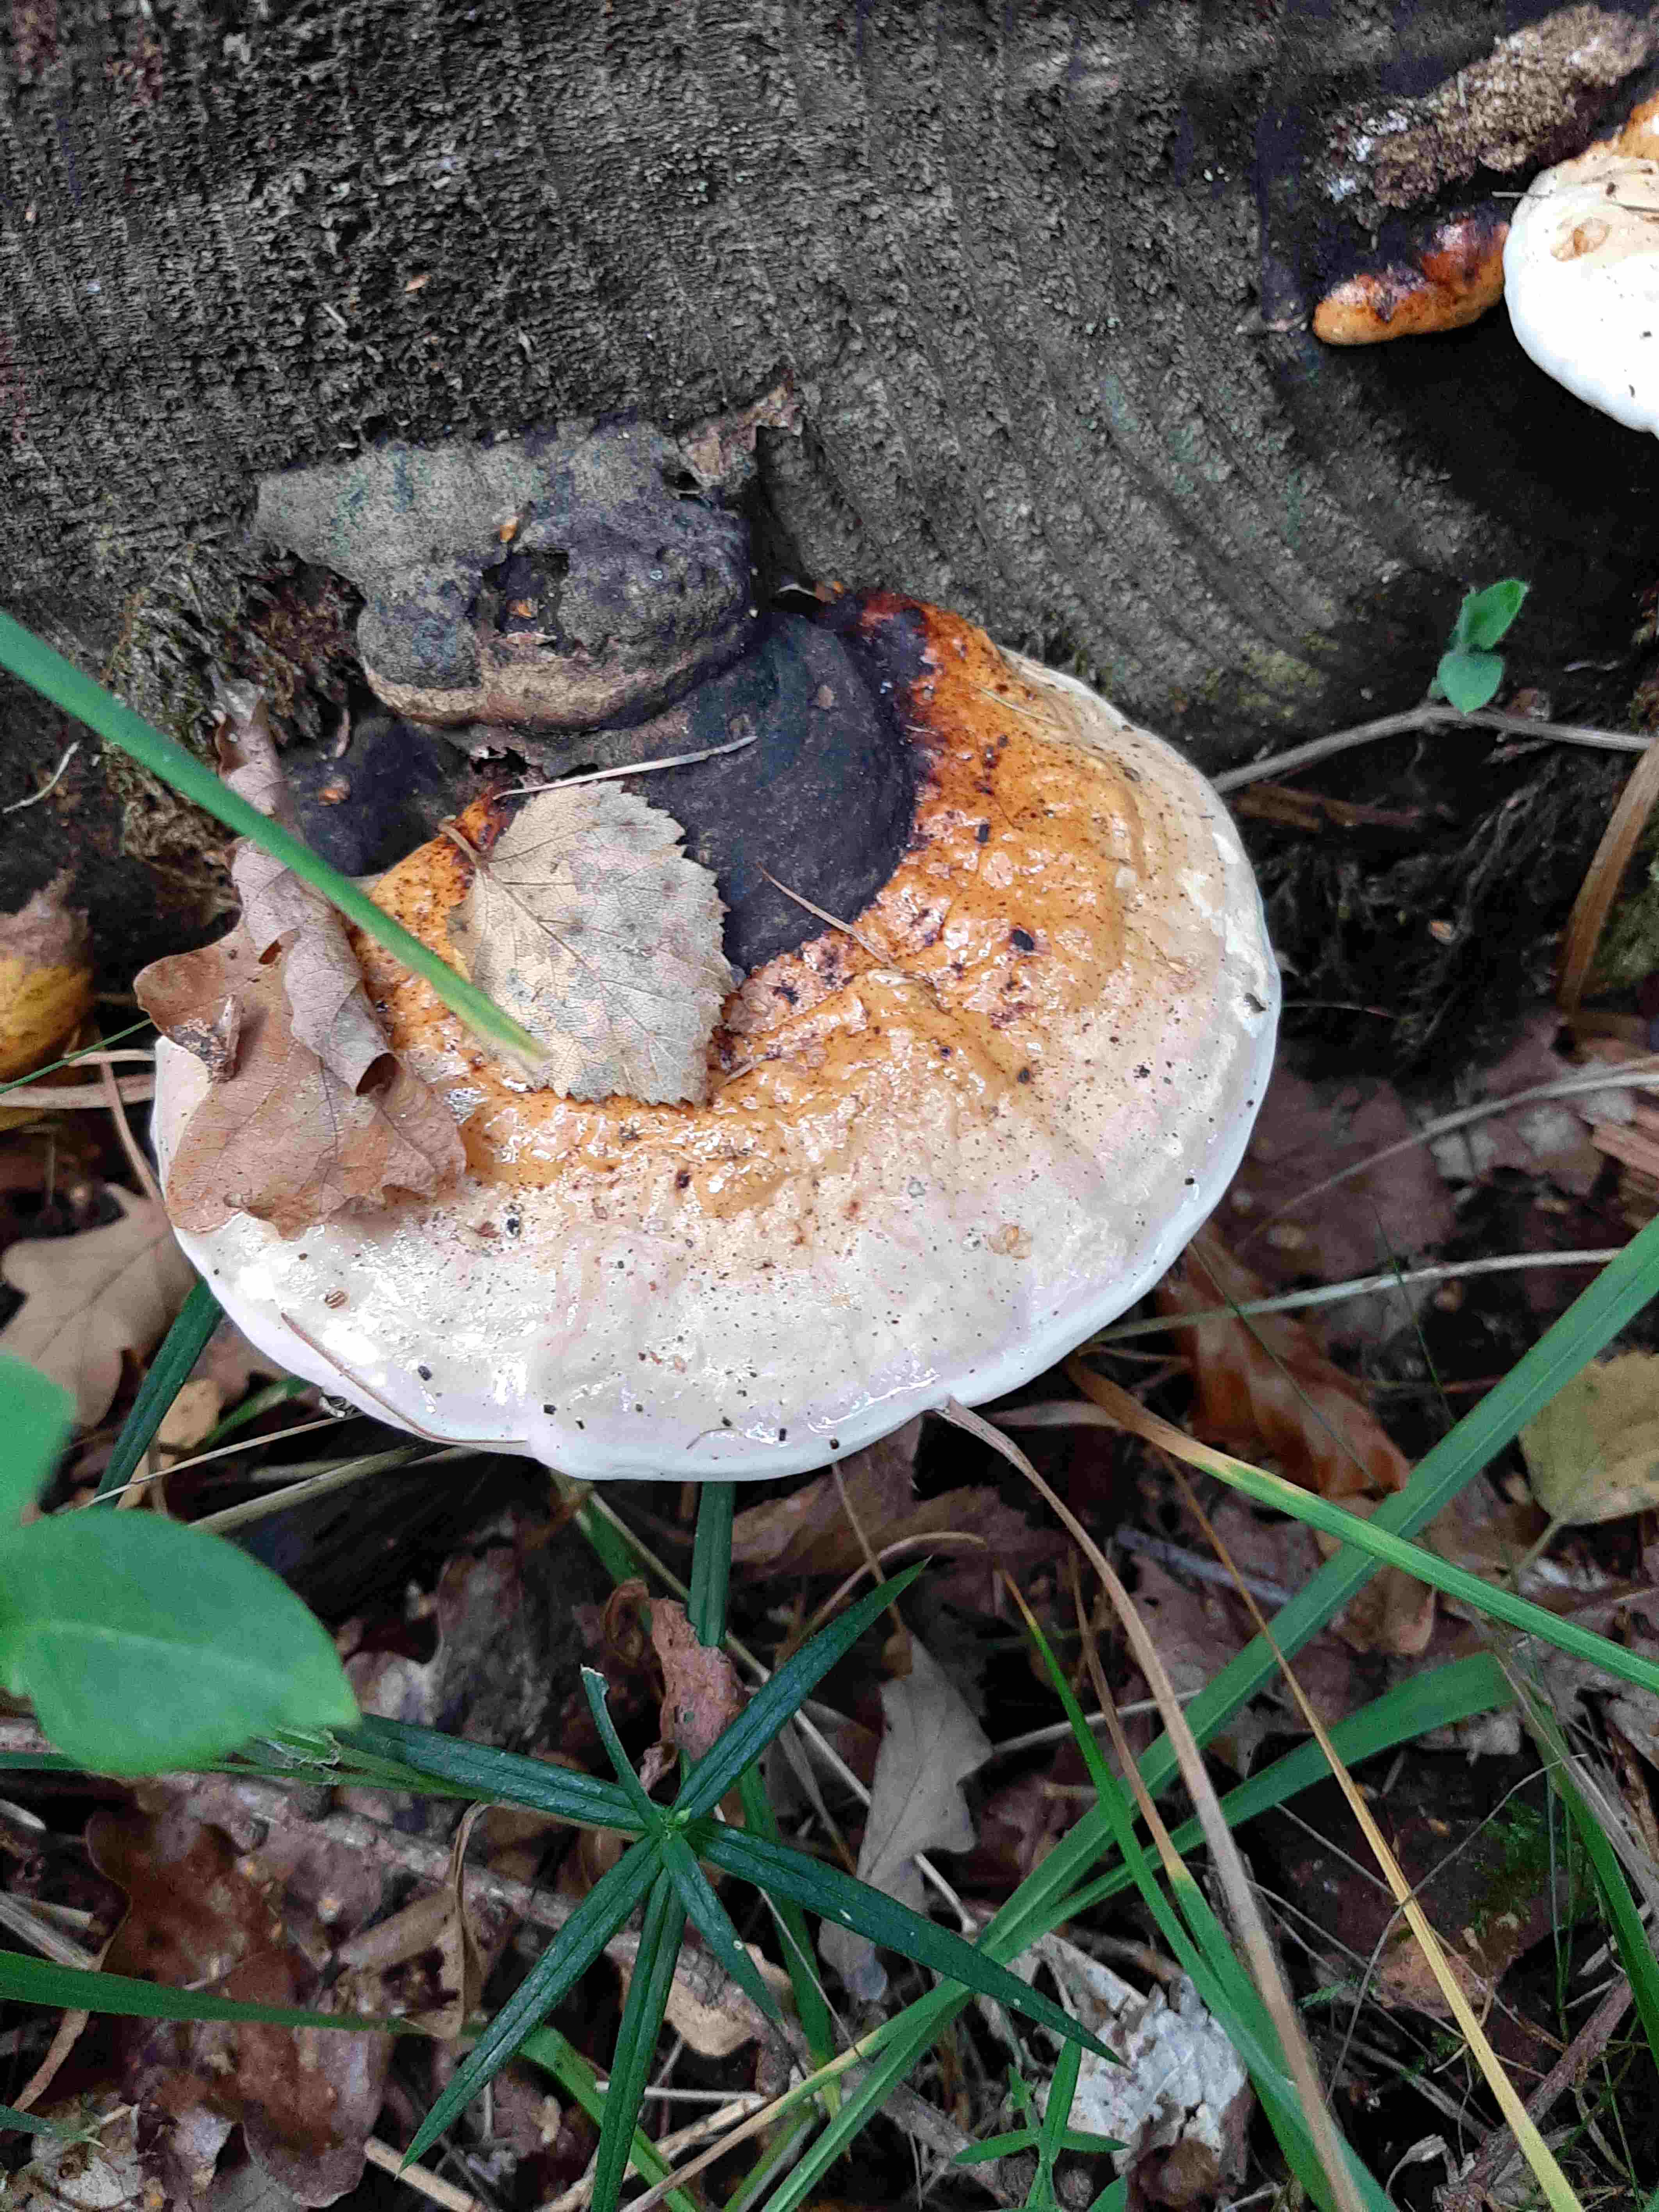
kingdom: Fungi
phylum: Basidiomycota
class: Agaricomycetes
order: Polyporales
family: Fomitopsidaceae
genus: Fomitopsis
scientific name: Fomitopsis pinicola
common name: randbæltet hovporesvamp
